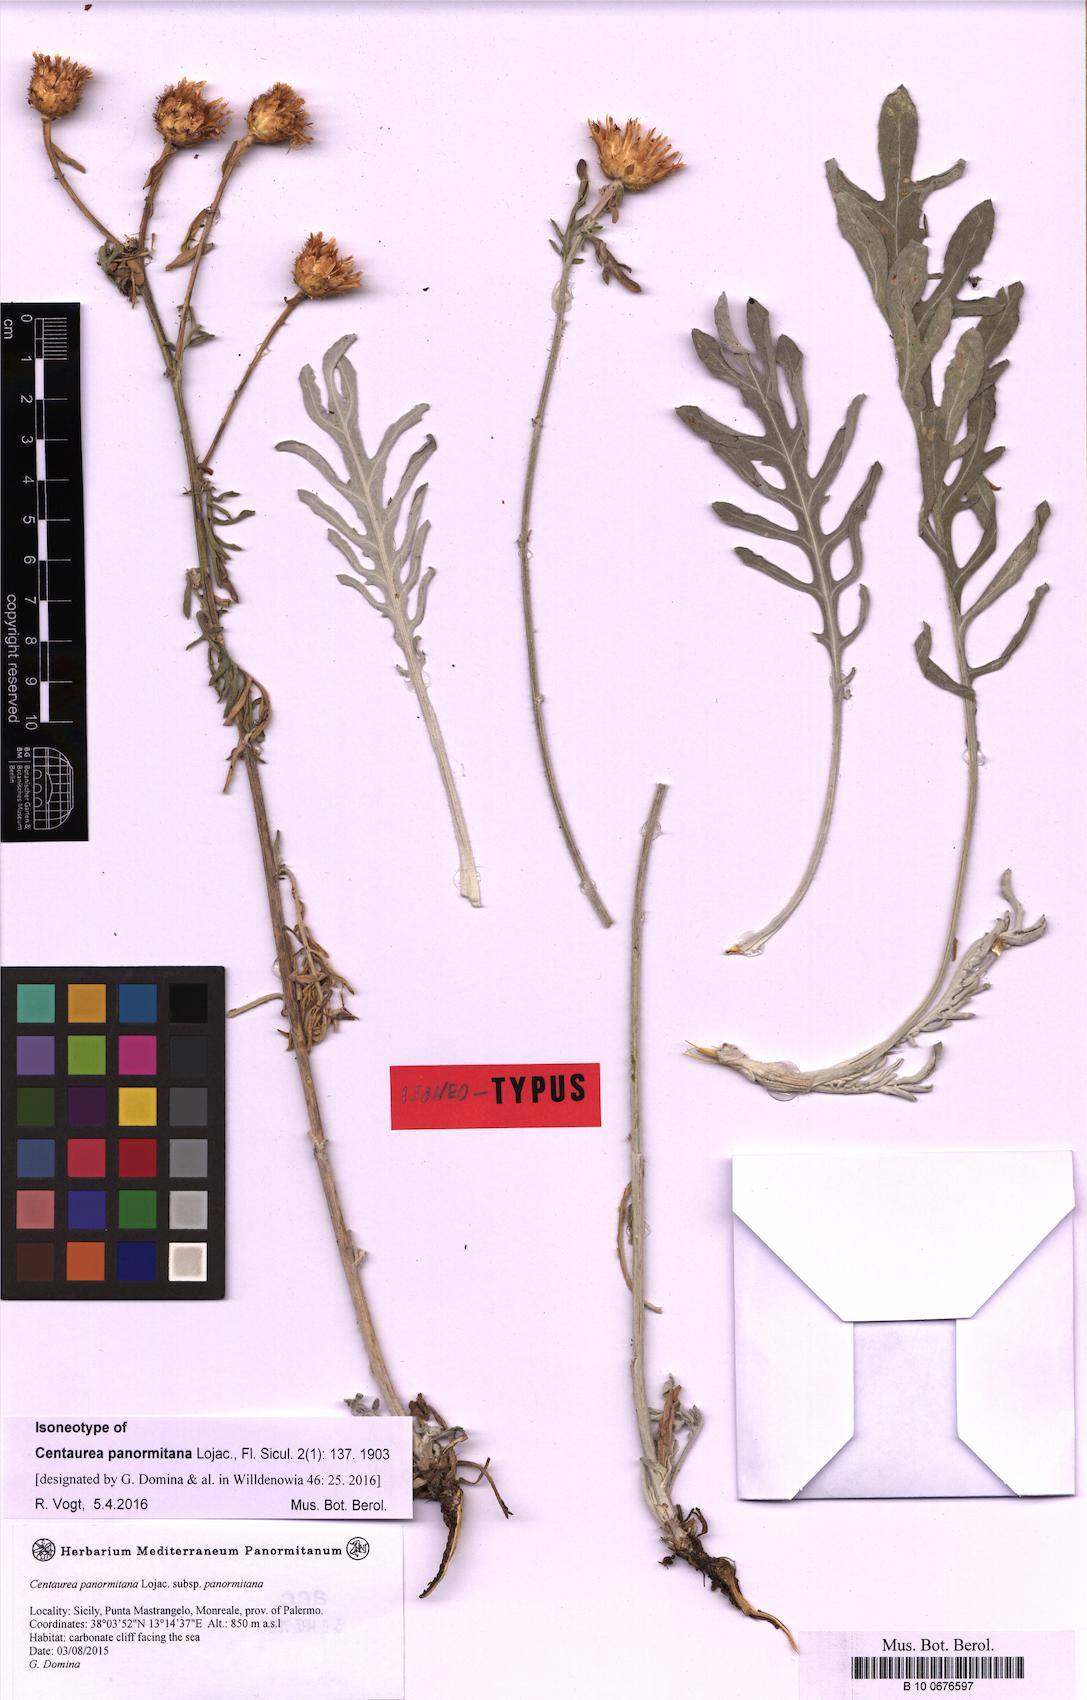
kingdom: Plantae
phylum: Tracheophyta
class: Magnoliopsida
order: Asterales
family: Asteraceae
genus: Centaurea
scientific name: Centaurea panormitana
